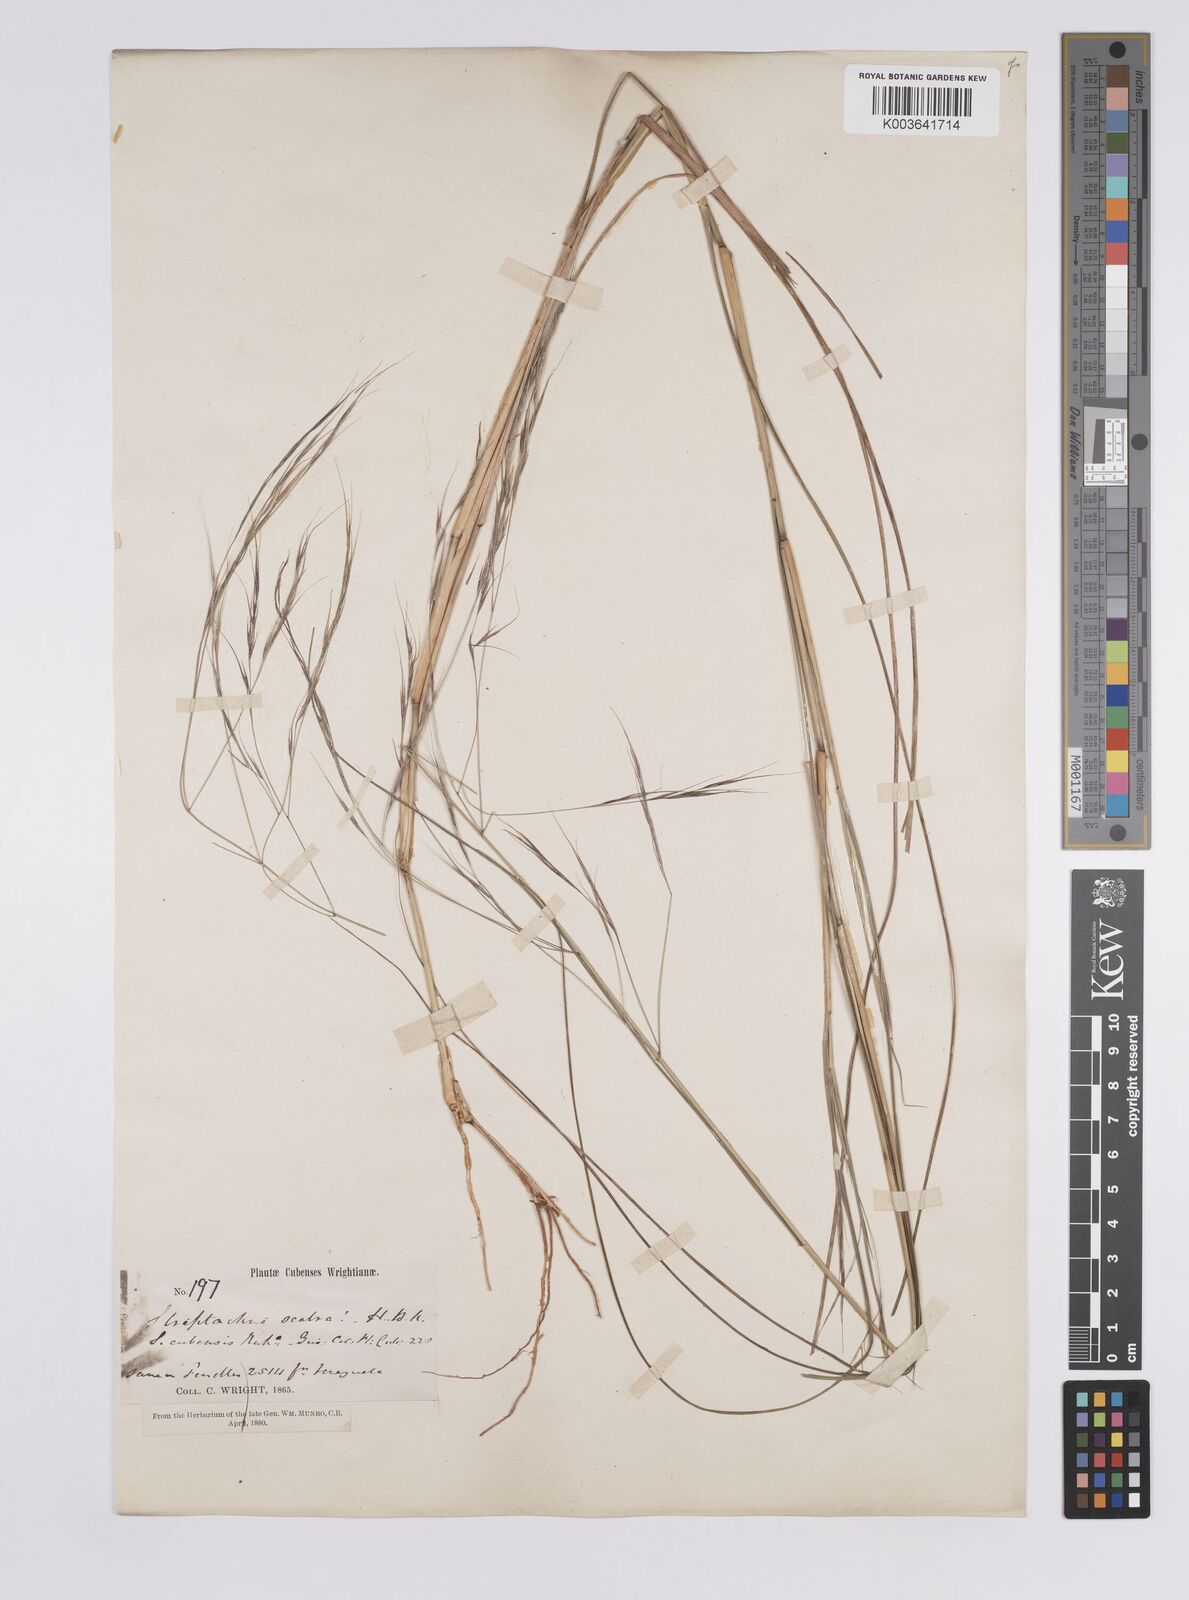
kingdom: Plantae
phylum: Tracheophyta
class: Liliopsida
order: Poales
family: Poaceae
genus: Aristida
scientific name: Aristida
